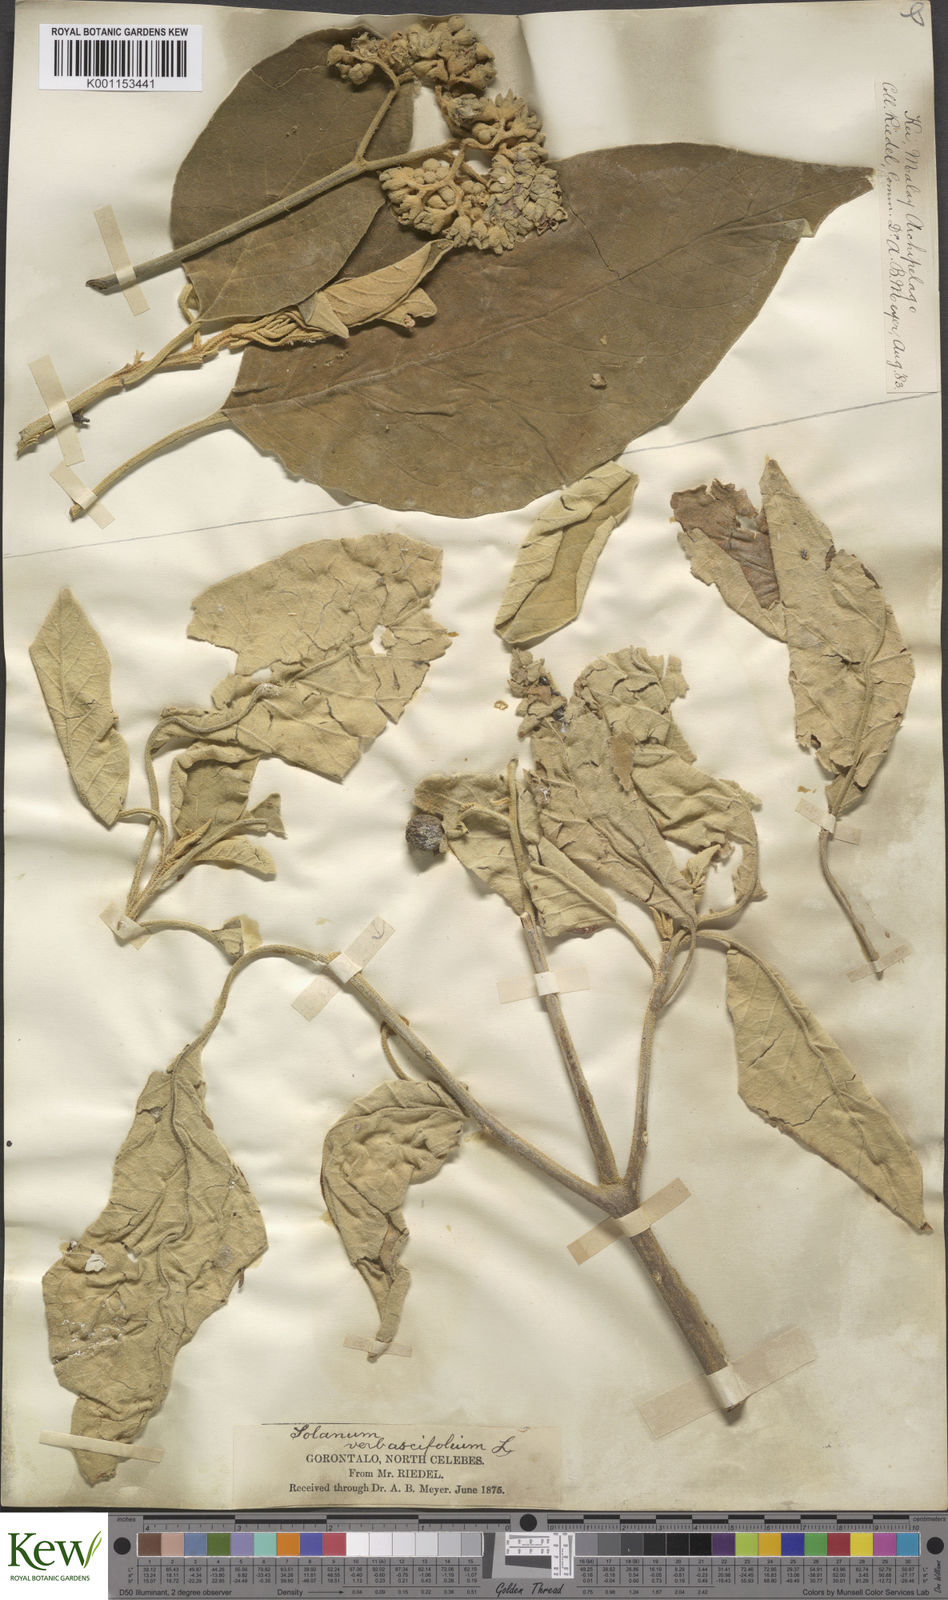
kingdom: Plantae
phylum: Tracheophyta
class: Magnoliopsida
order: Solanales
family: Solanaceae
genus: Solanum
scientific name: Solanum erianthum
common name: Tobacco-tree
